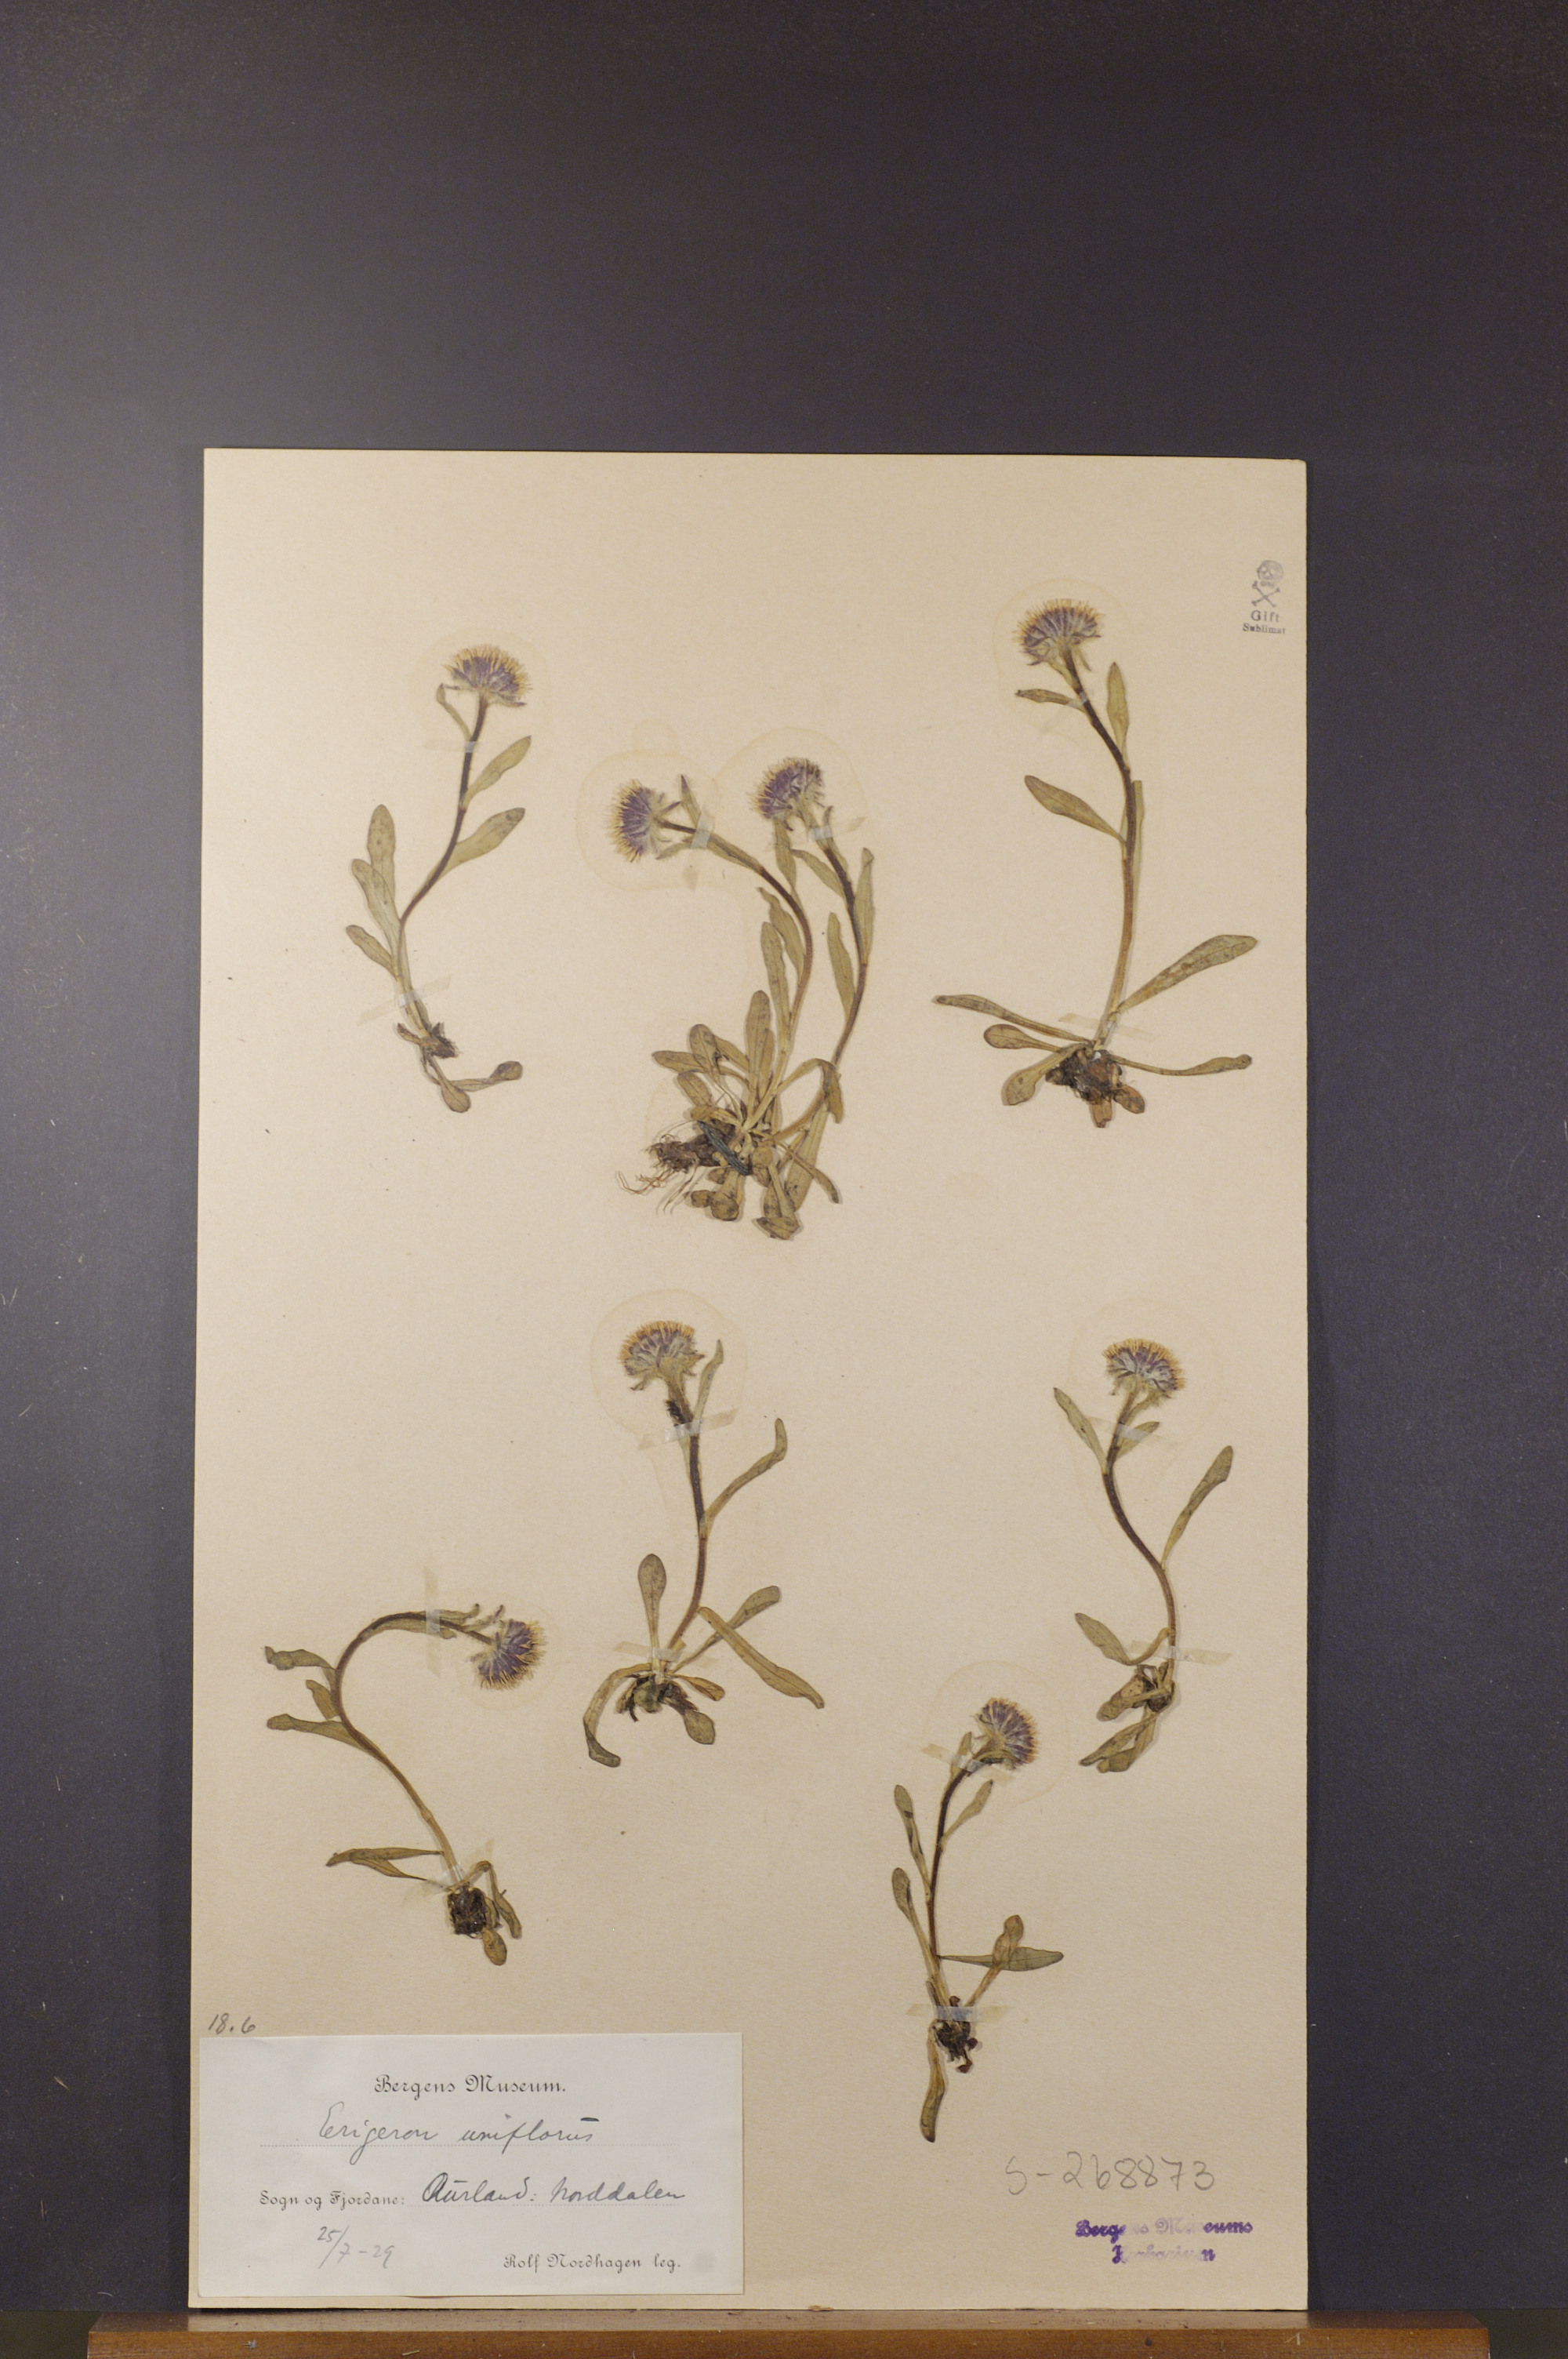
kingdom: Plantae
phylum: Tracheophyta
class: Magnoliopsida
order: Asterales
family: Asteraceae
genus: Erigeron
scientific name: Erigeron uniflorus
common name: Northern daisy
